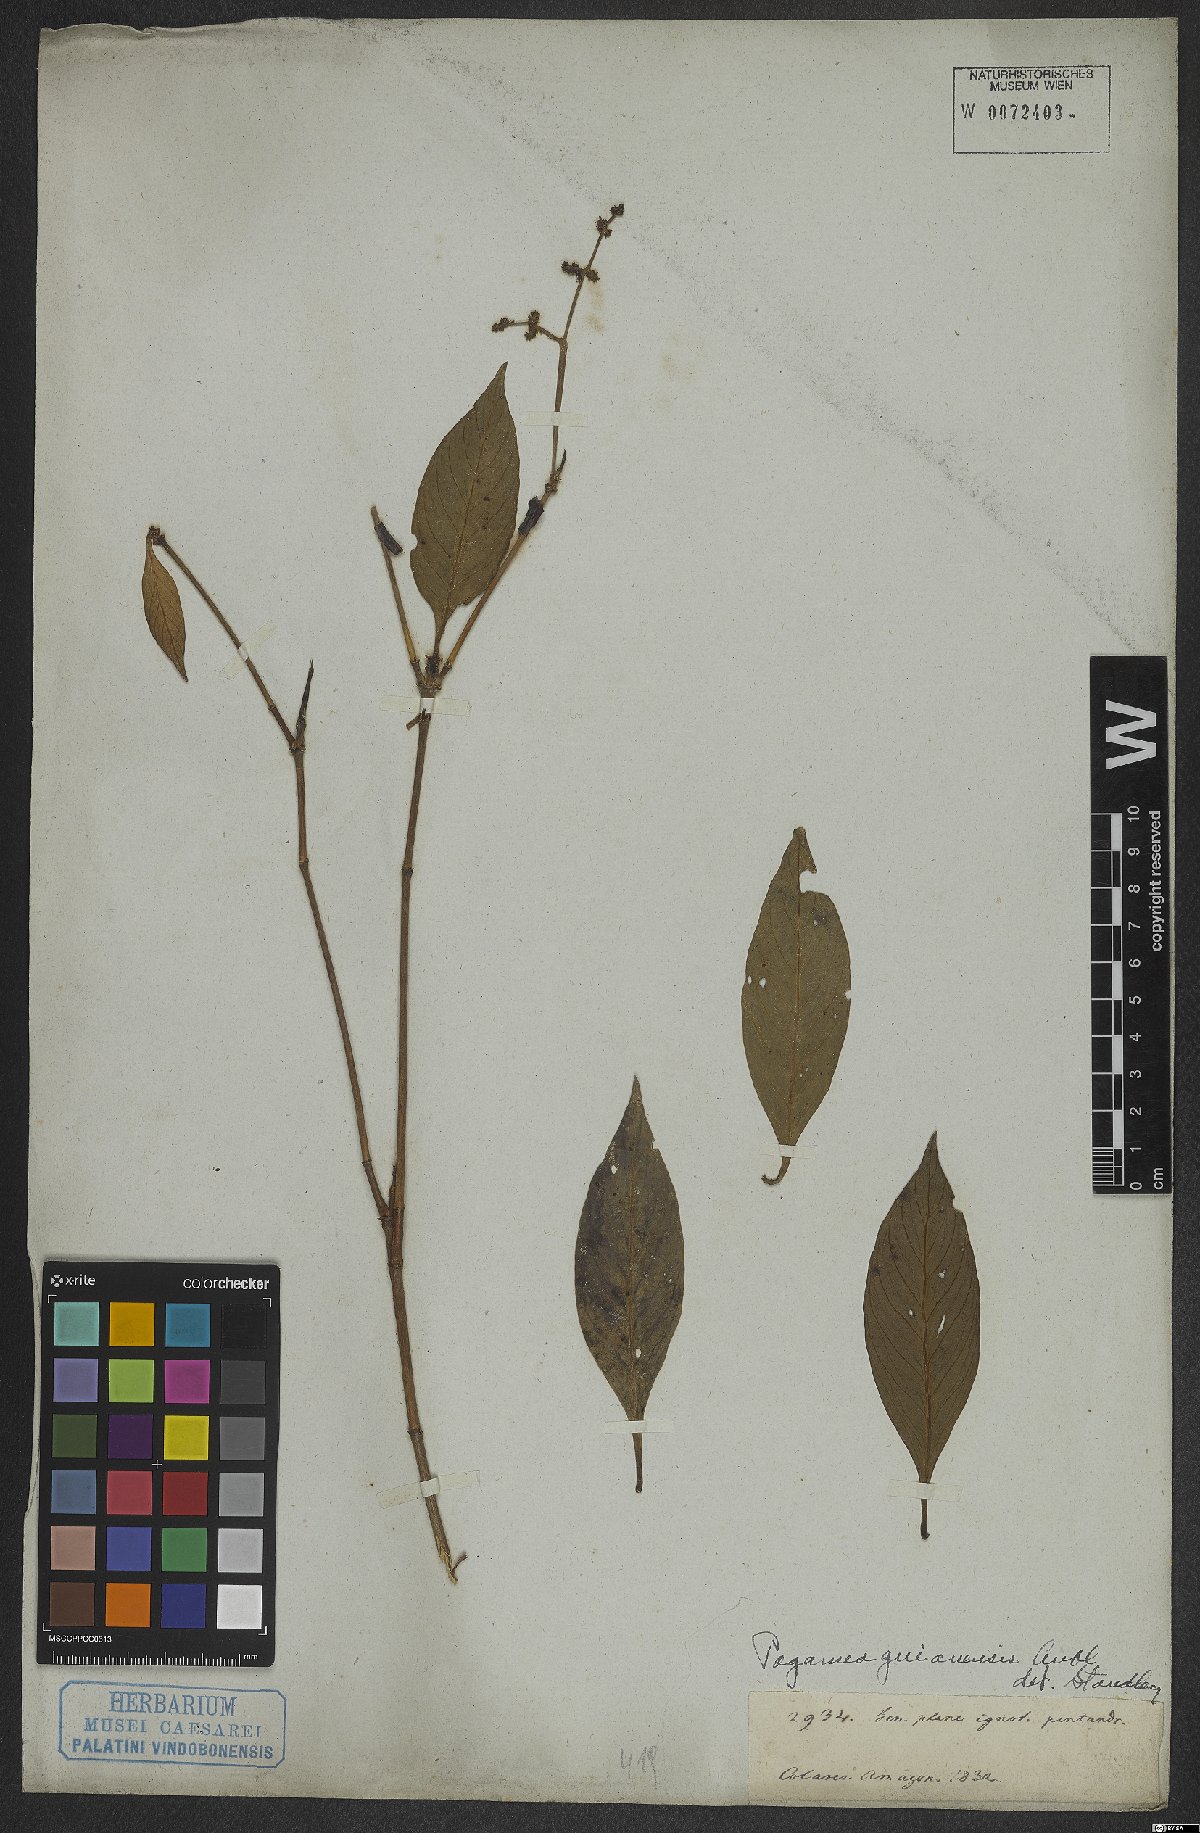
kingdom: Plantae
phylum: Tracheophyta
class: Magnoliopsida
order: Gentianales
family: Rubiaceae
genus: Pagamea
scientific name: Pagamea guianensis
